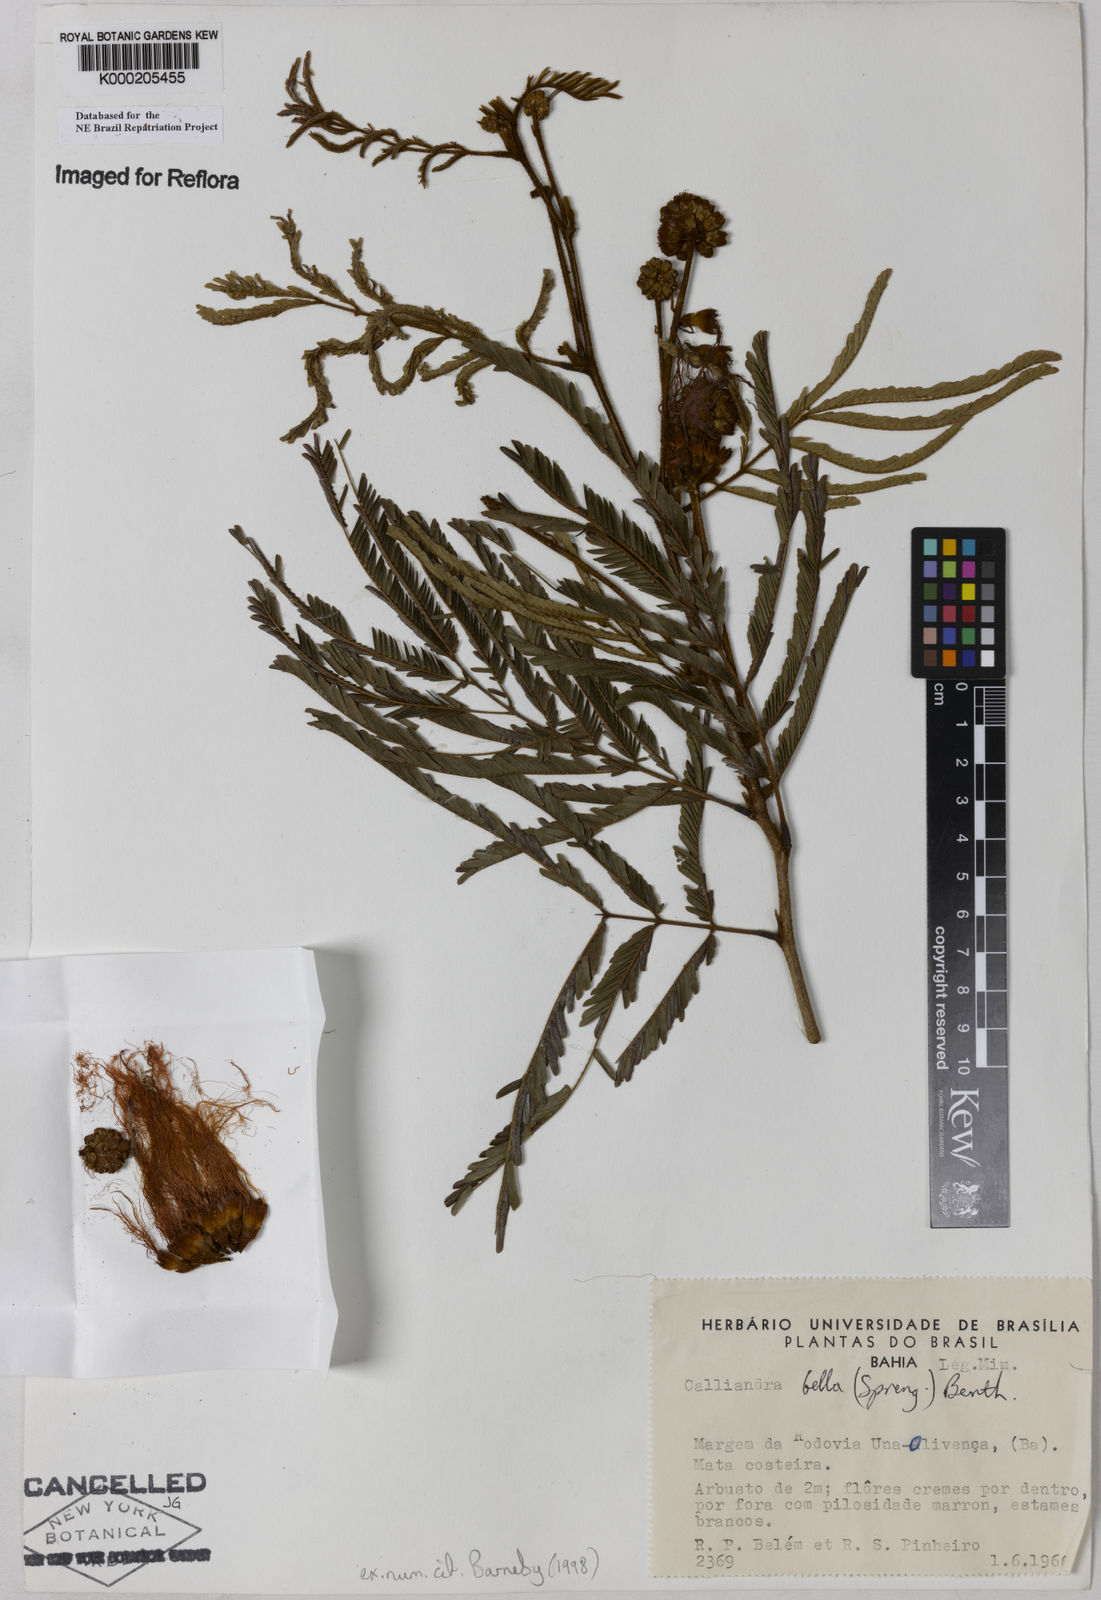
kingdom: Plantae
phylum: Tracheophyta
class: Magnoliopsida
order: Fabales
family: Fabaceae
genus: Calliandra
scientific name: Calliandra bella
